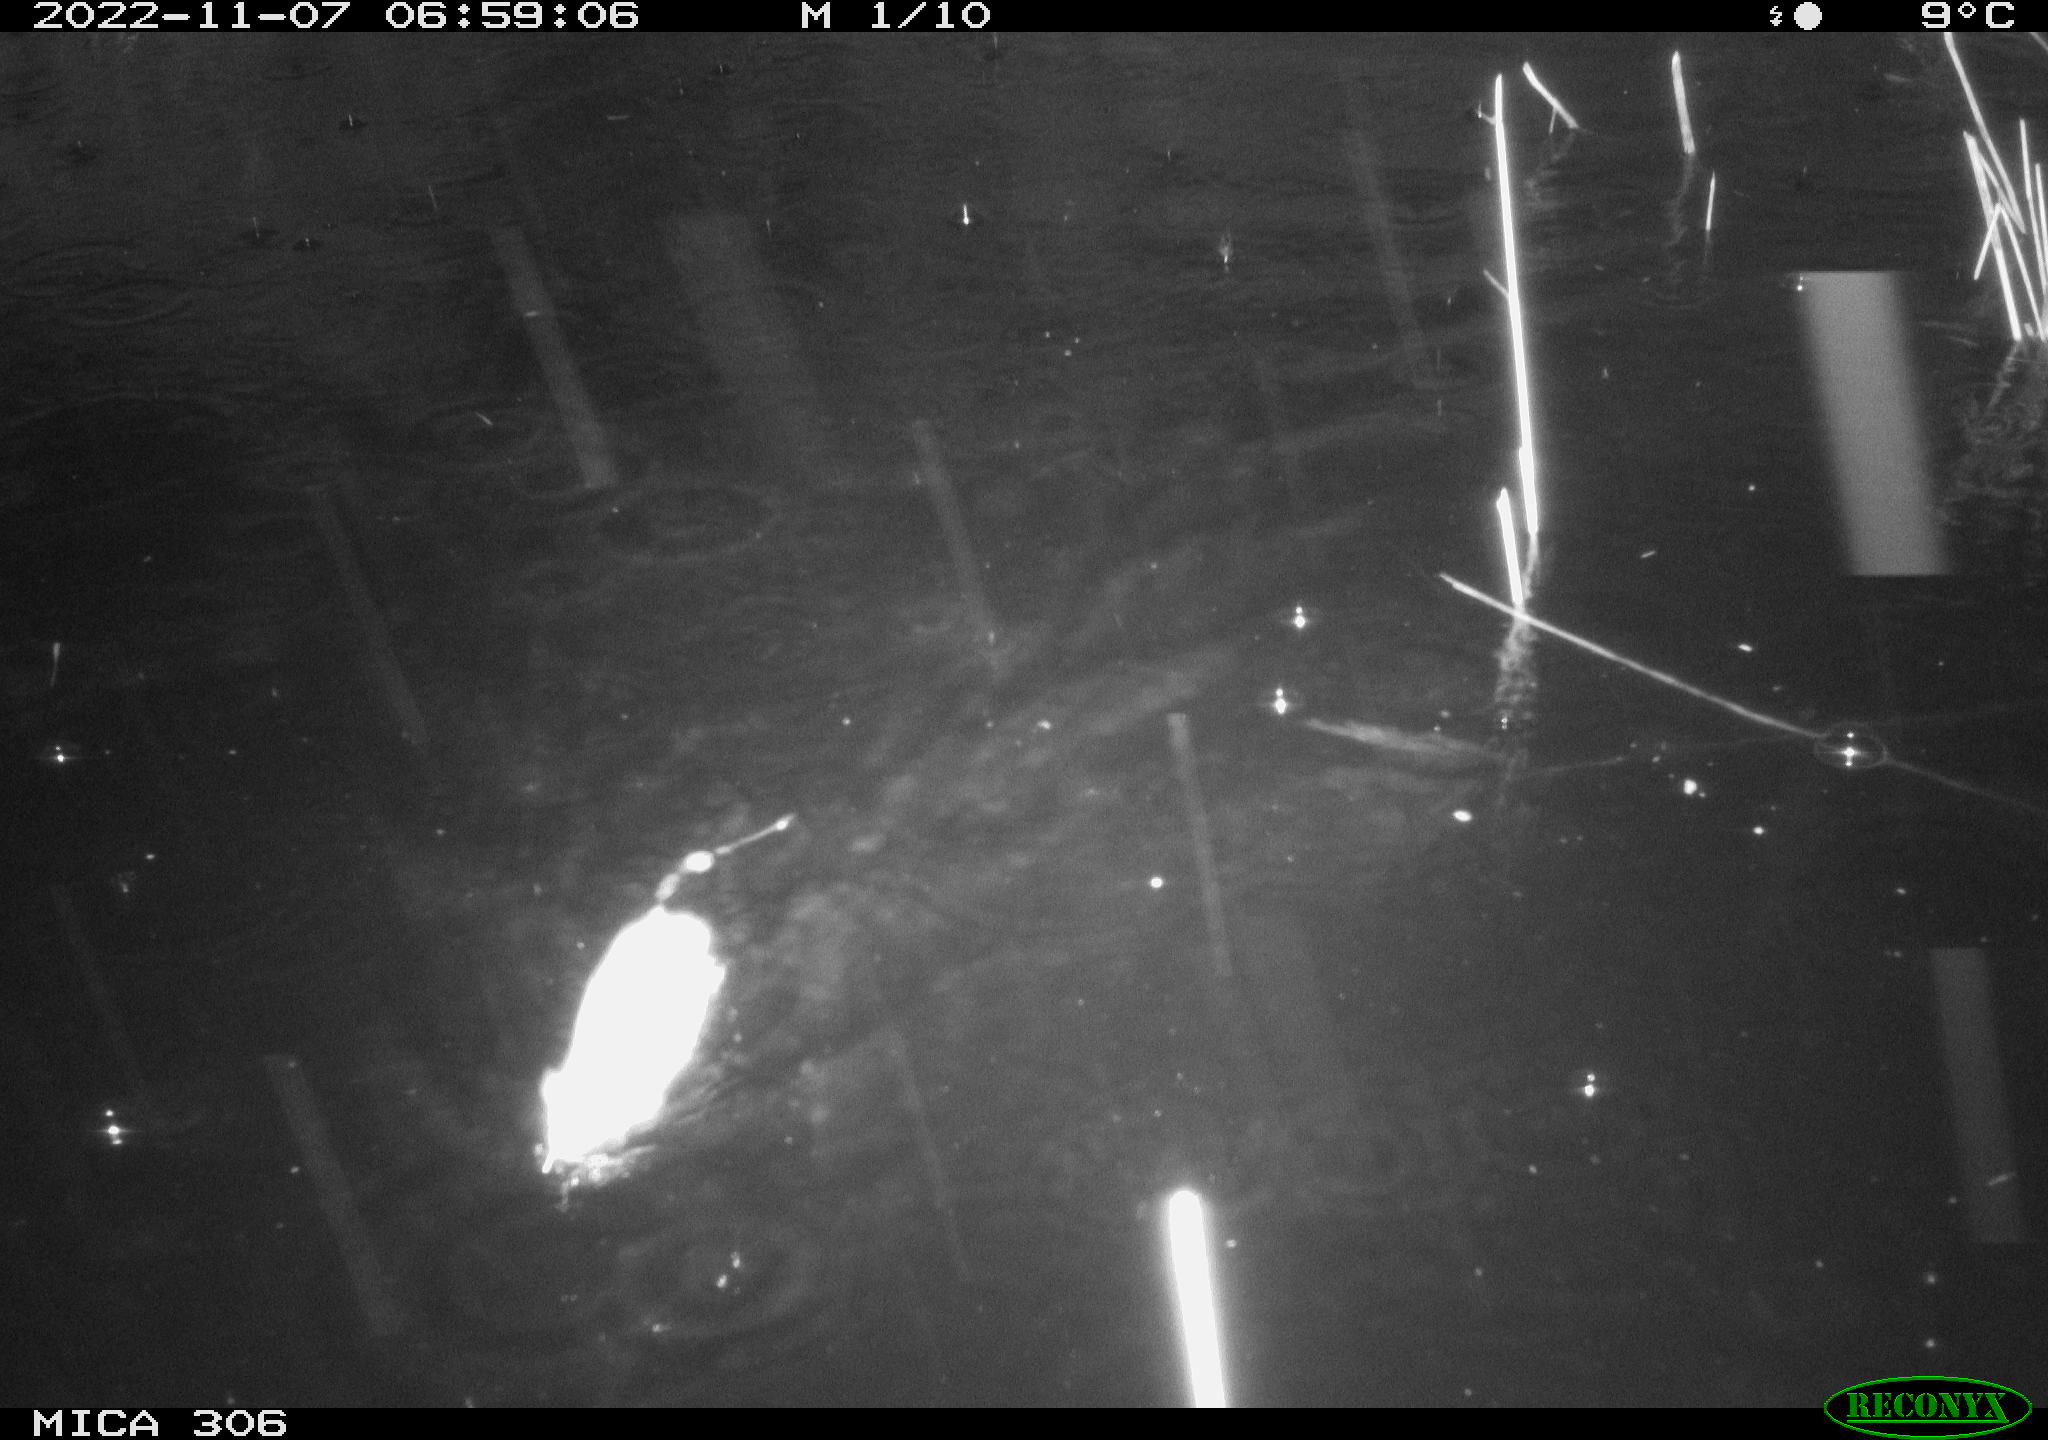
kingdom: Animalia
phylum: Chordata
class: Mammalia
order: Rodentia
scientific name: Rodentia
